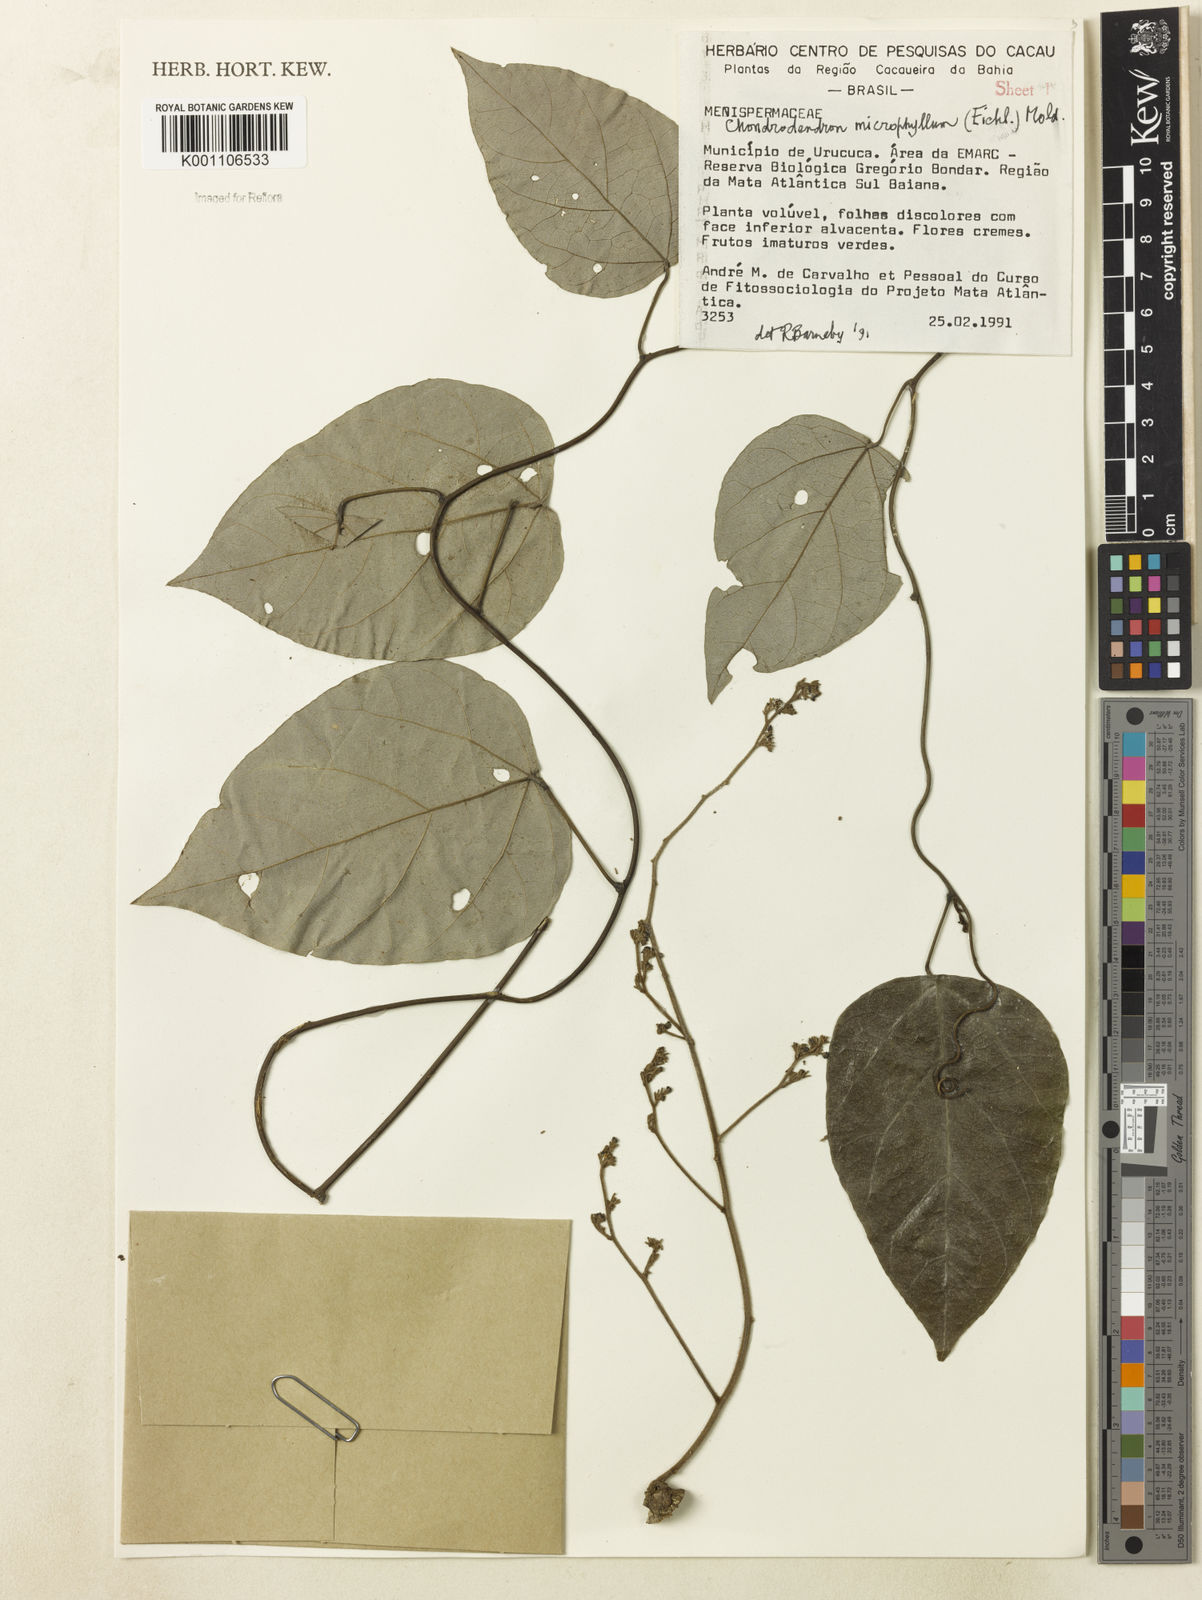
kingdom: Plantae
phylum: Tracheophyta
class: Magnoliopsida
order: Ranunculales
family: Menispermaceae
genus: Chondrodendron
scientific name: Chondrodendron microphyllum
